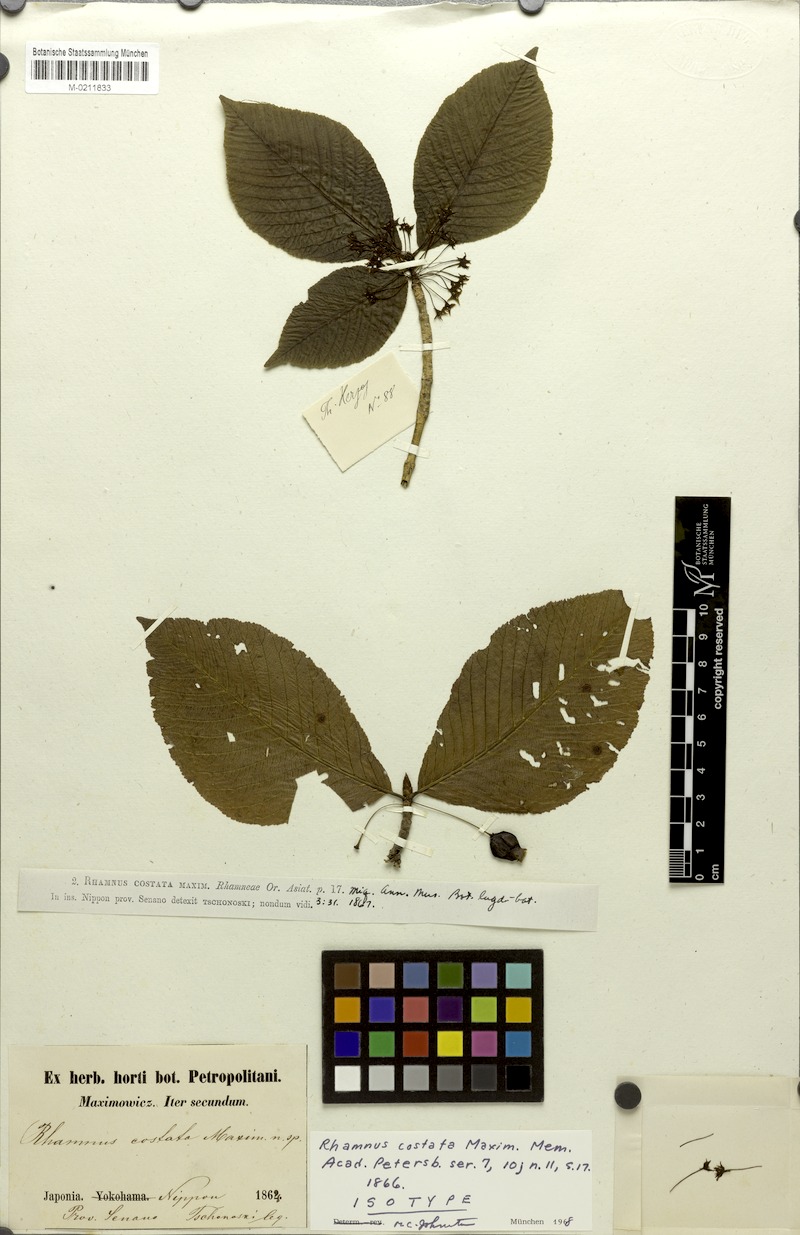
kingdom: Plantae
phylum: Tracheophyta
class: Magnoliopsida
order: Rosales
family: Rhamnaceae
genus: Rhamnus
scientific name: Rhamnus costata
